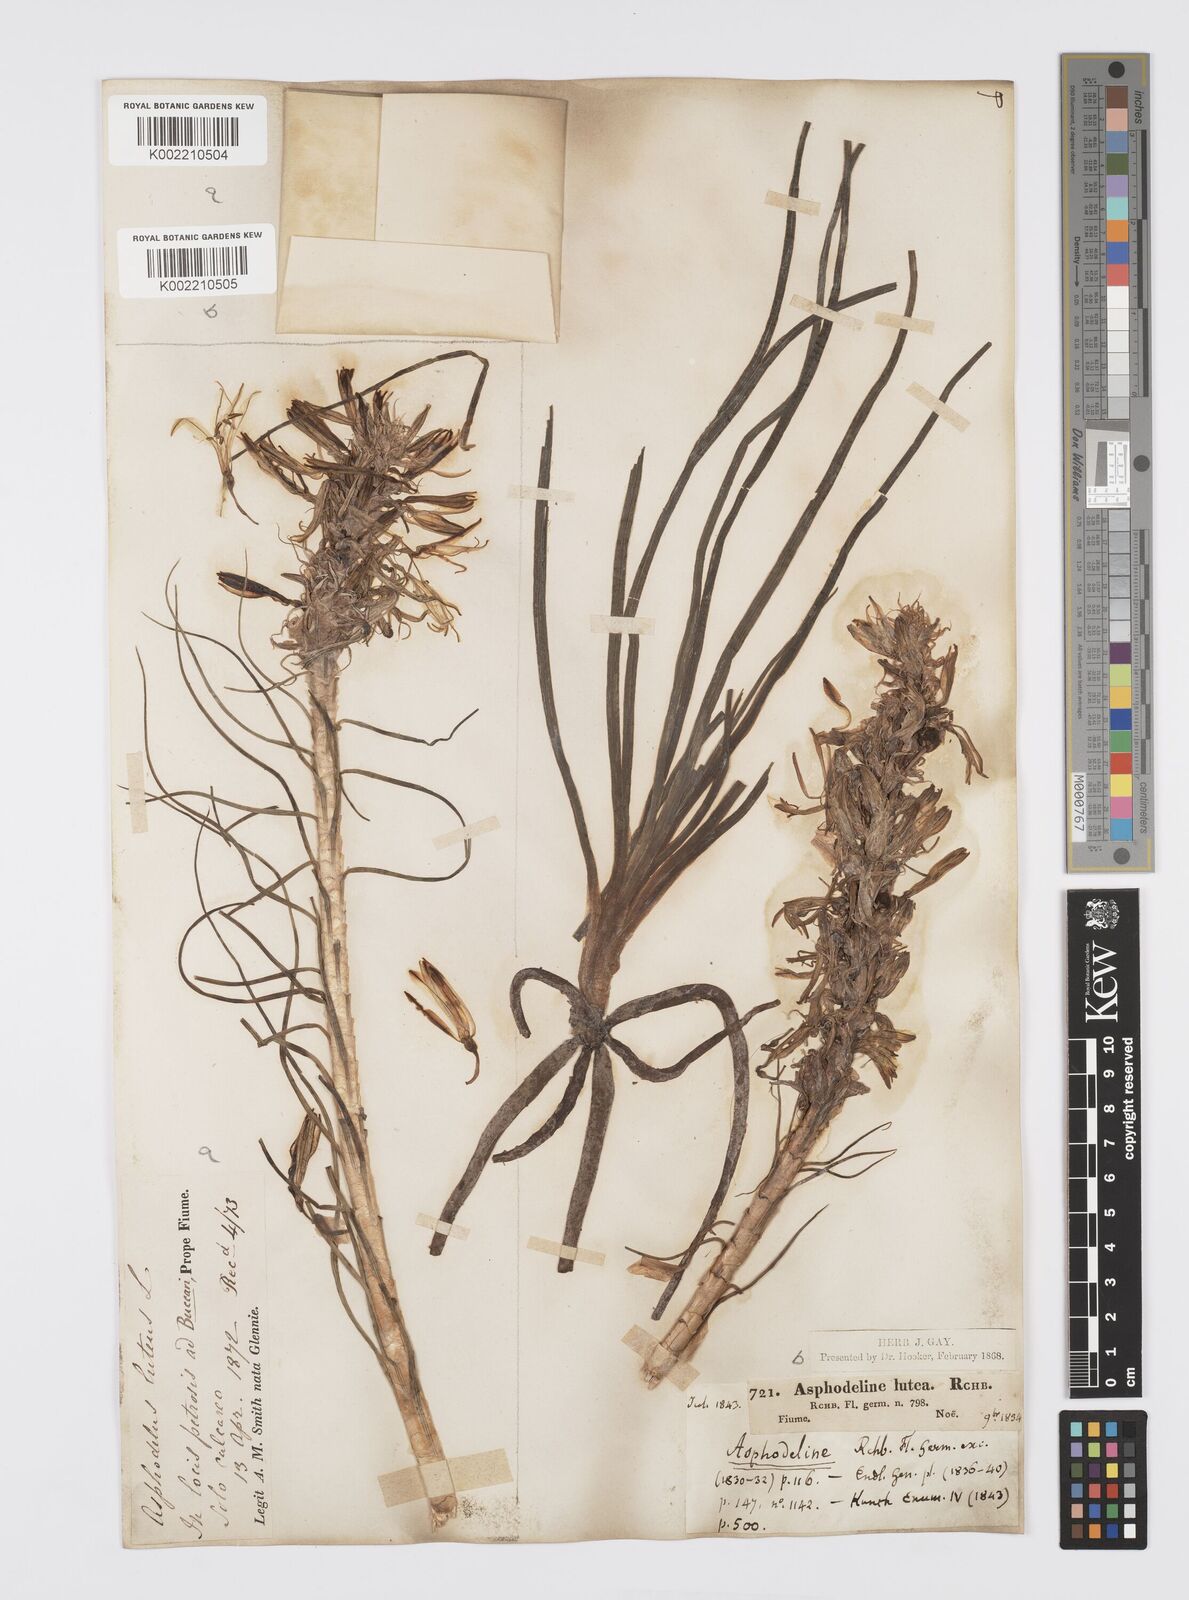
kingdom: Plantae
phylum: Tracheophyta
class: Liliopsida
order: Asparagales
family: Asphodelaceae
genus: Asphodeline
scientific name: Asphodeline lutea
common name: Yellow asphodel
